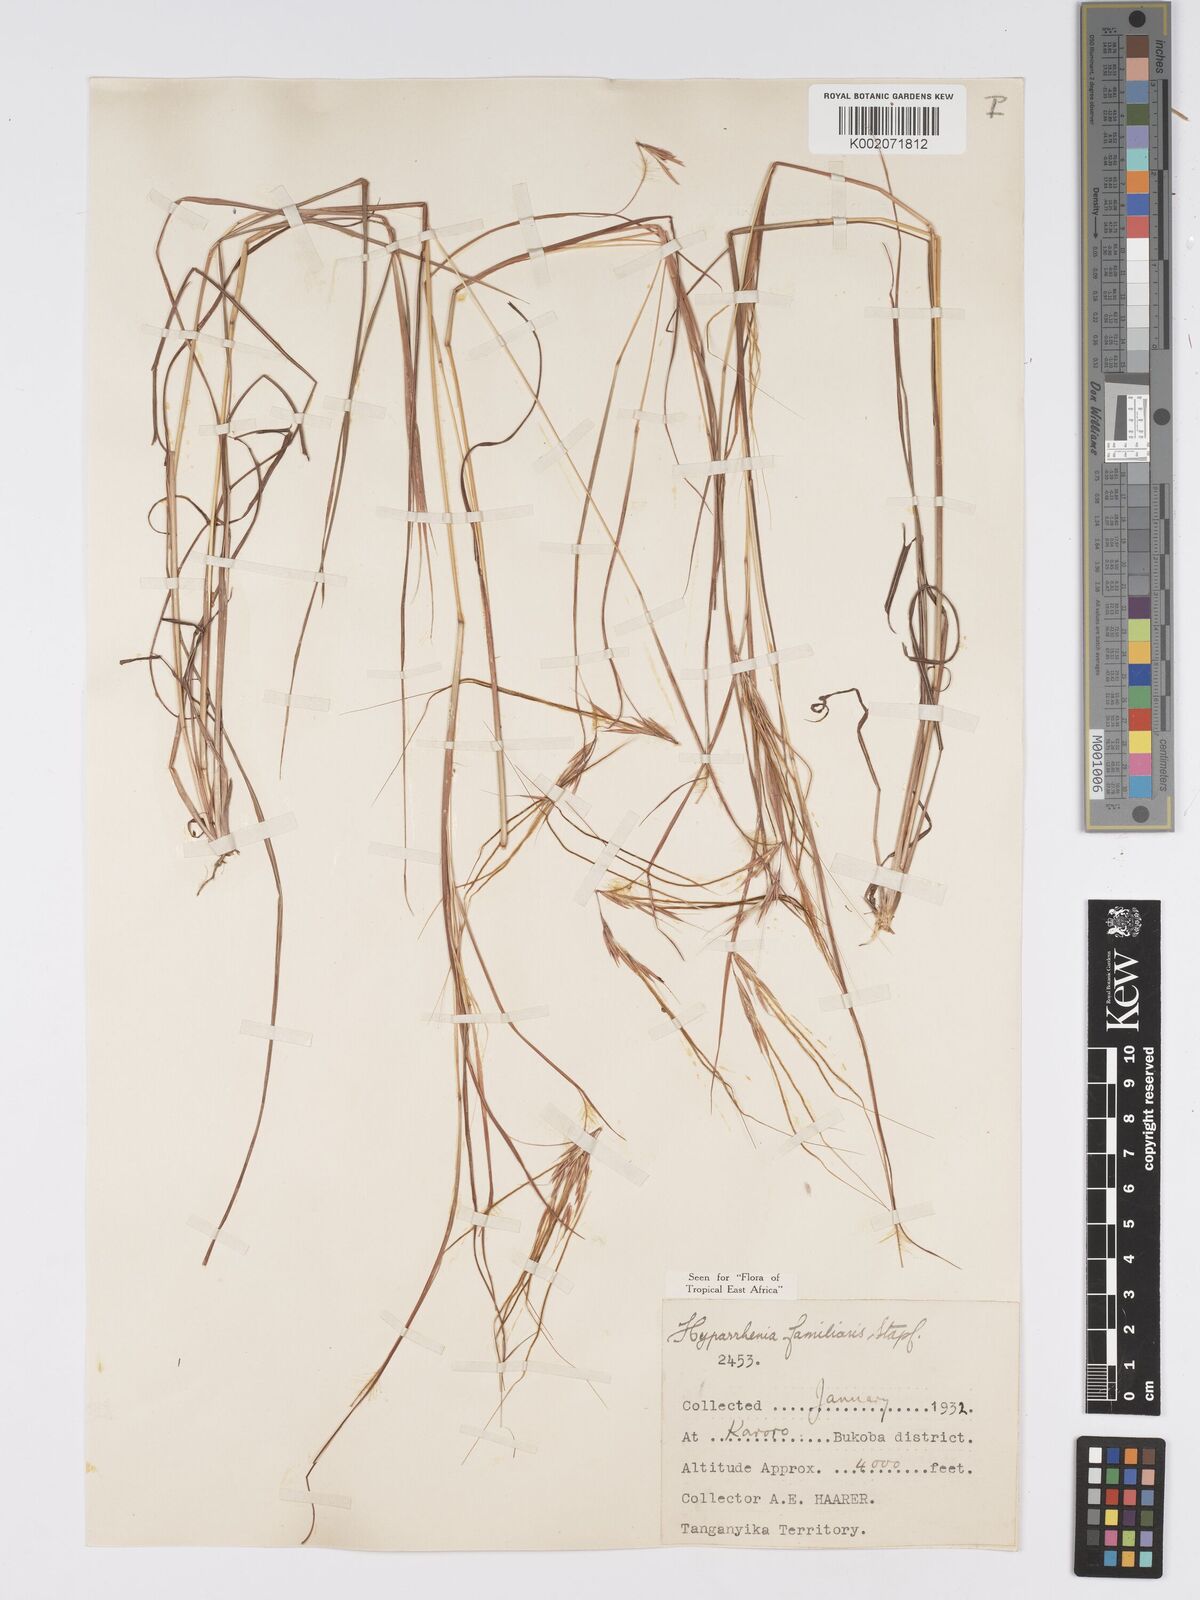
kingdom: Plantae
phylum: Tracheophyta
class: Liliopsida
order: Poales
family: Poaceae
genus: Hyparrhenia
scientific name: Hyparrhenia familiaris
